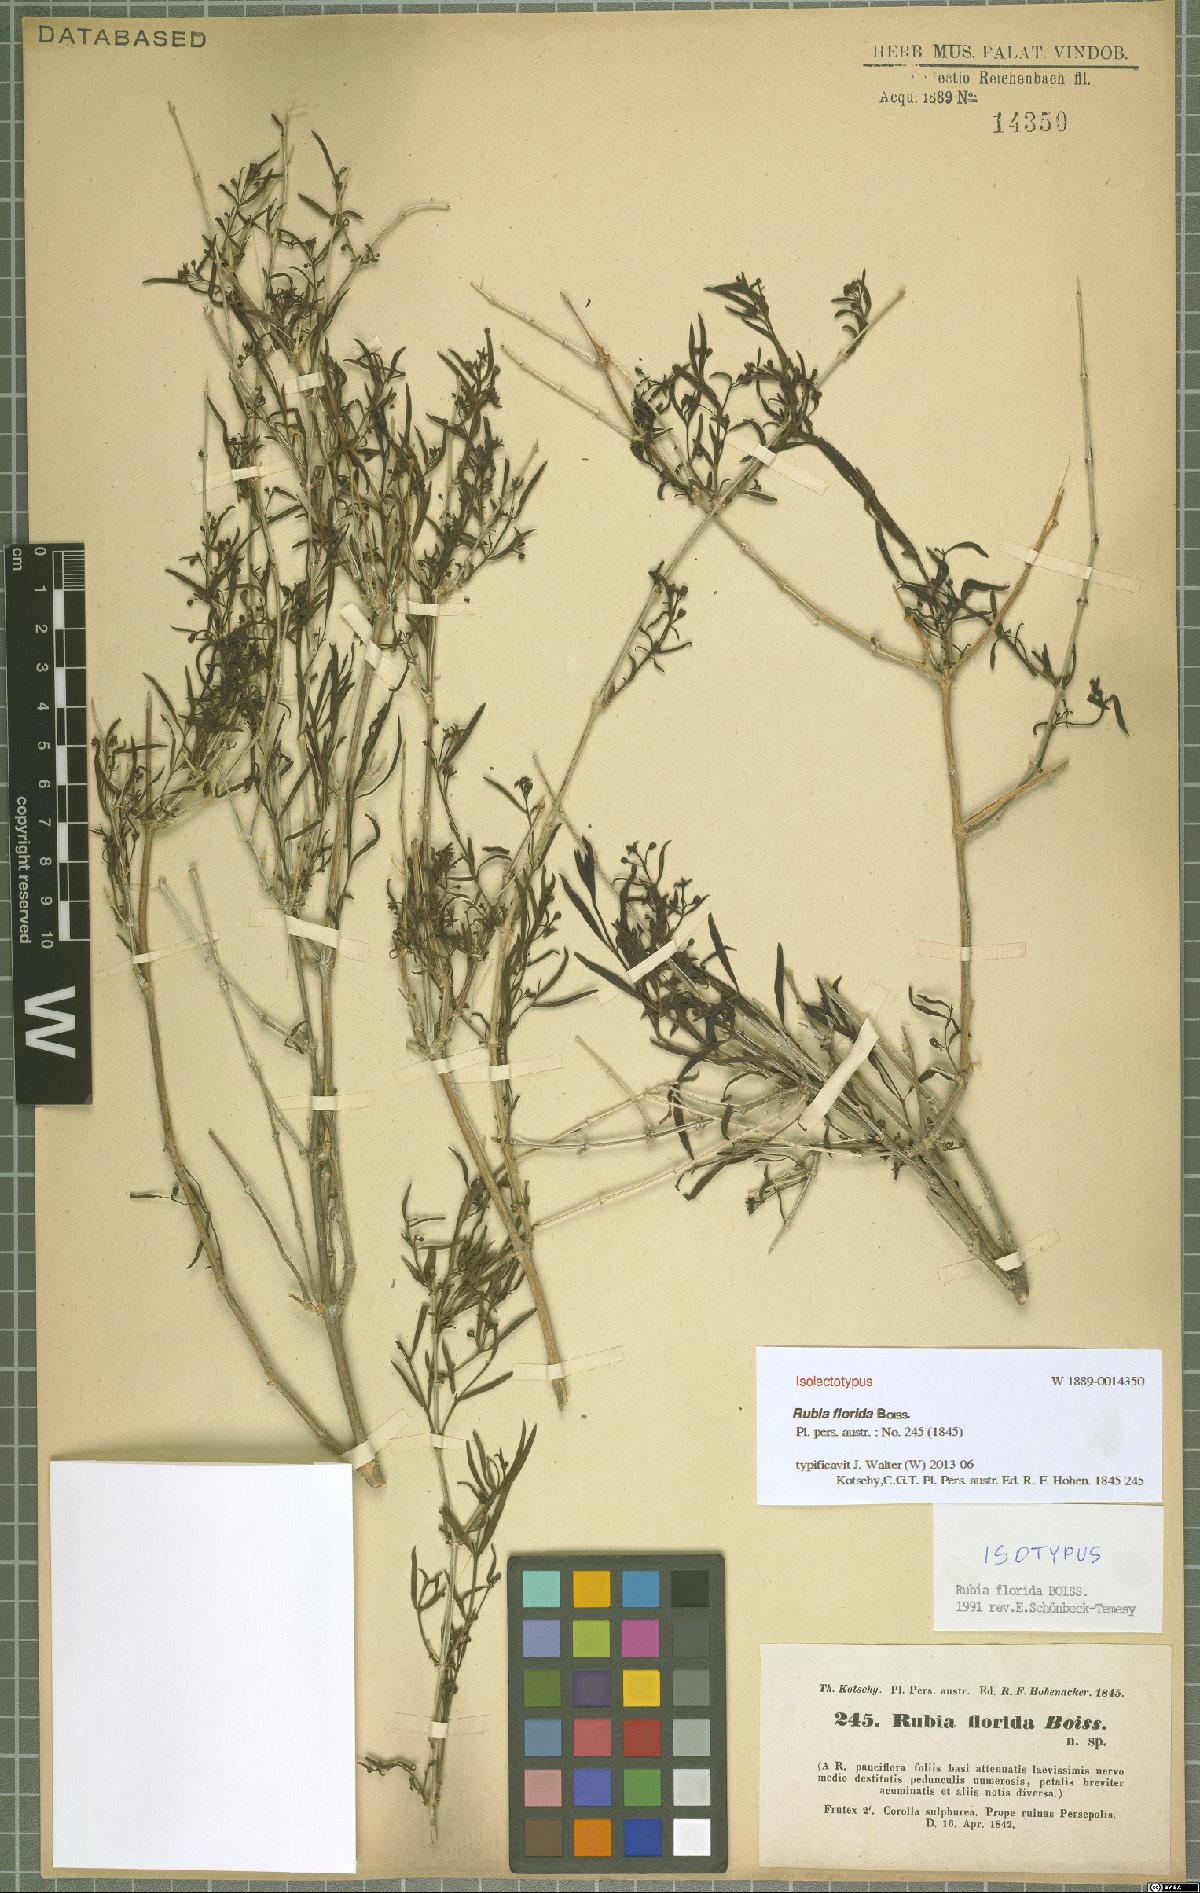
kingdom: Plantae
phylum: Tracheophyta
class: Magnoliopsida
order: Gentianales
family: Rubiaceae
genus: Rubia
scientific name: Rubia florida
